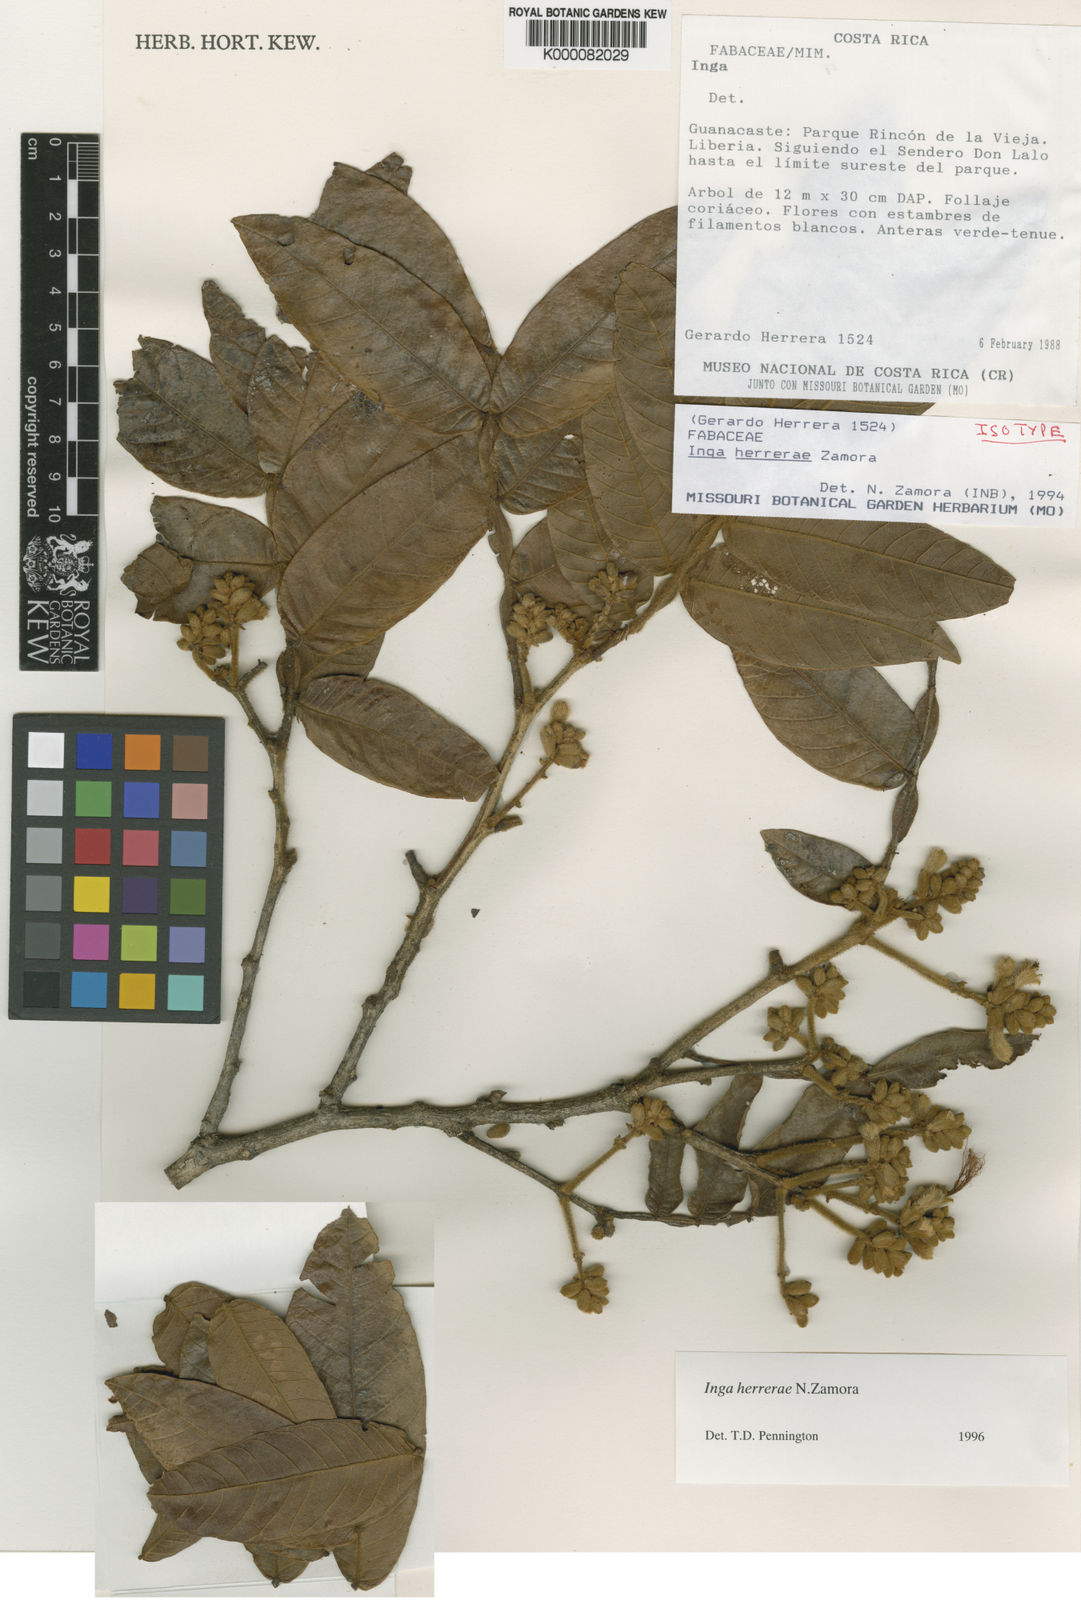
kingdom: Plantae
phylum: Tracheophyta
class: Magnoliopsida
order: Fabales
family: Fabaceae
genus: Inga
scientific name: Inga herrerae
